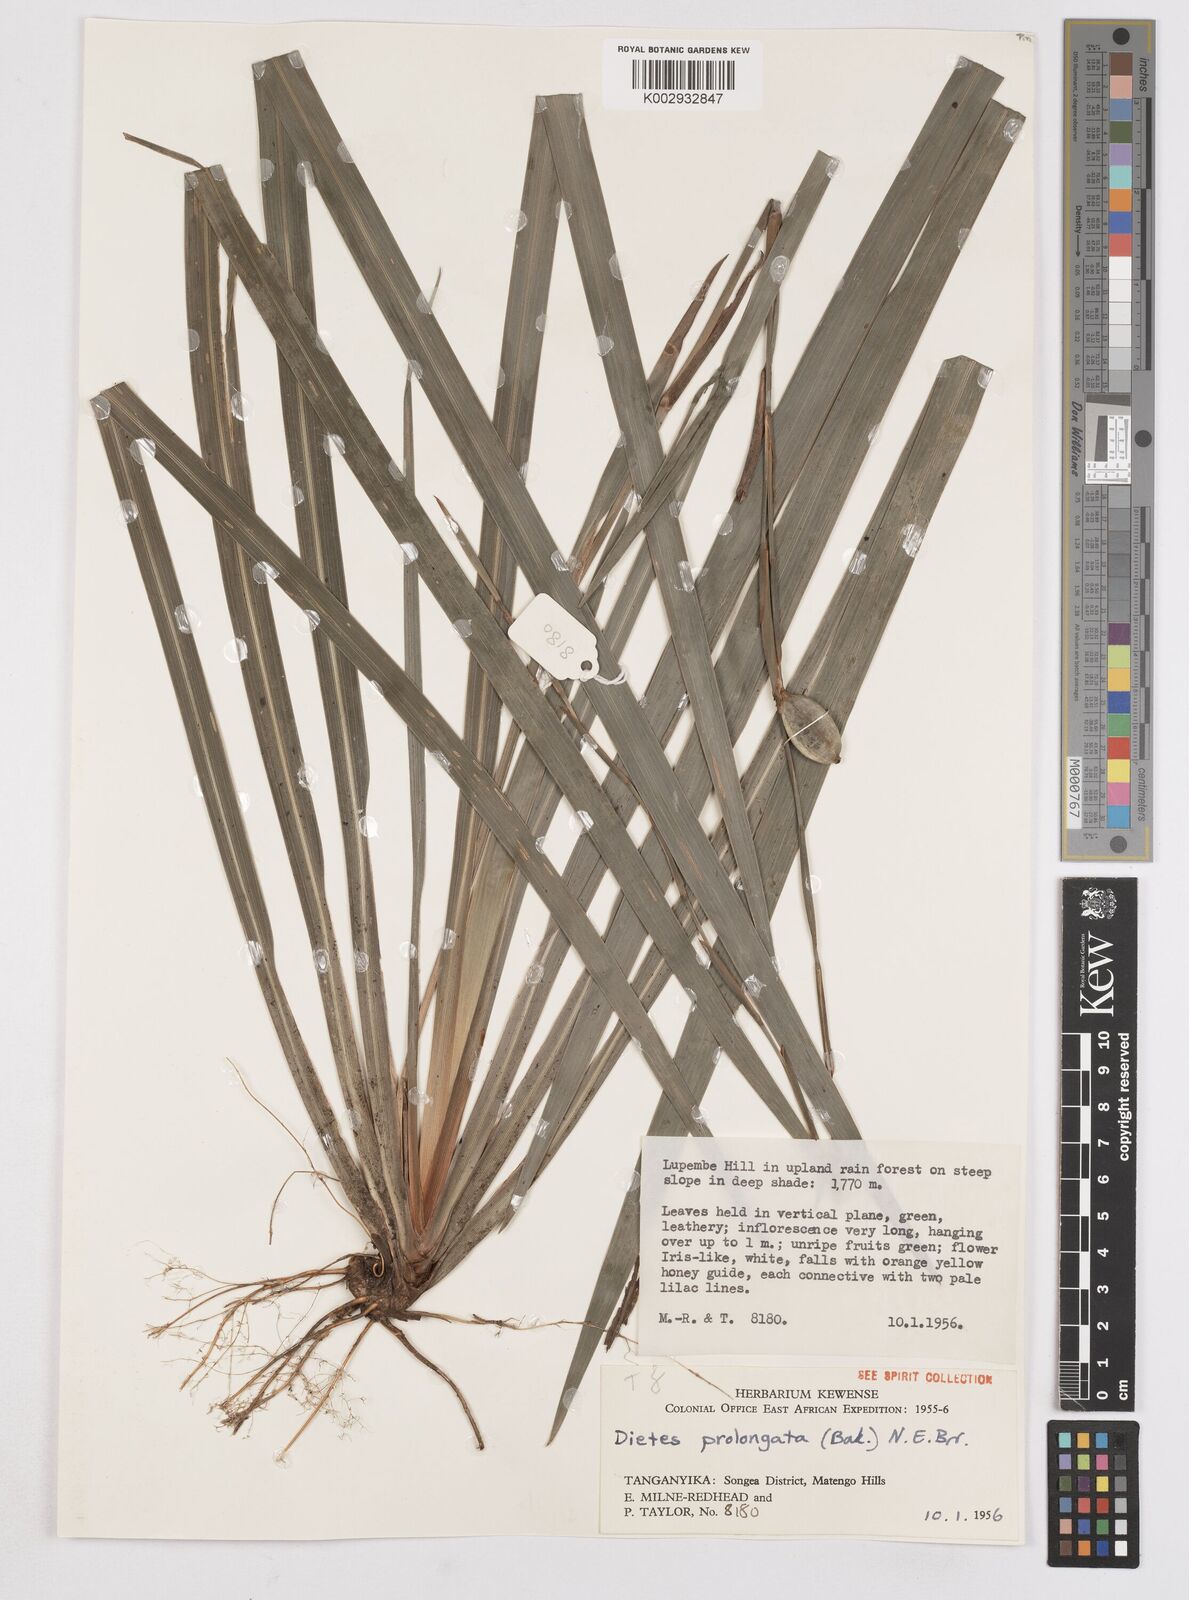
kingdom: Plantae
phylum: Tracheophyta
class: Liliopsida
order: Asparagales
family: Iridaceae
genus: Dietes
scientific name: Dietes iridioides
